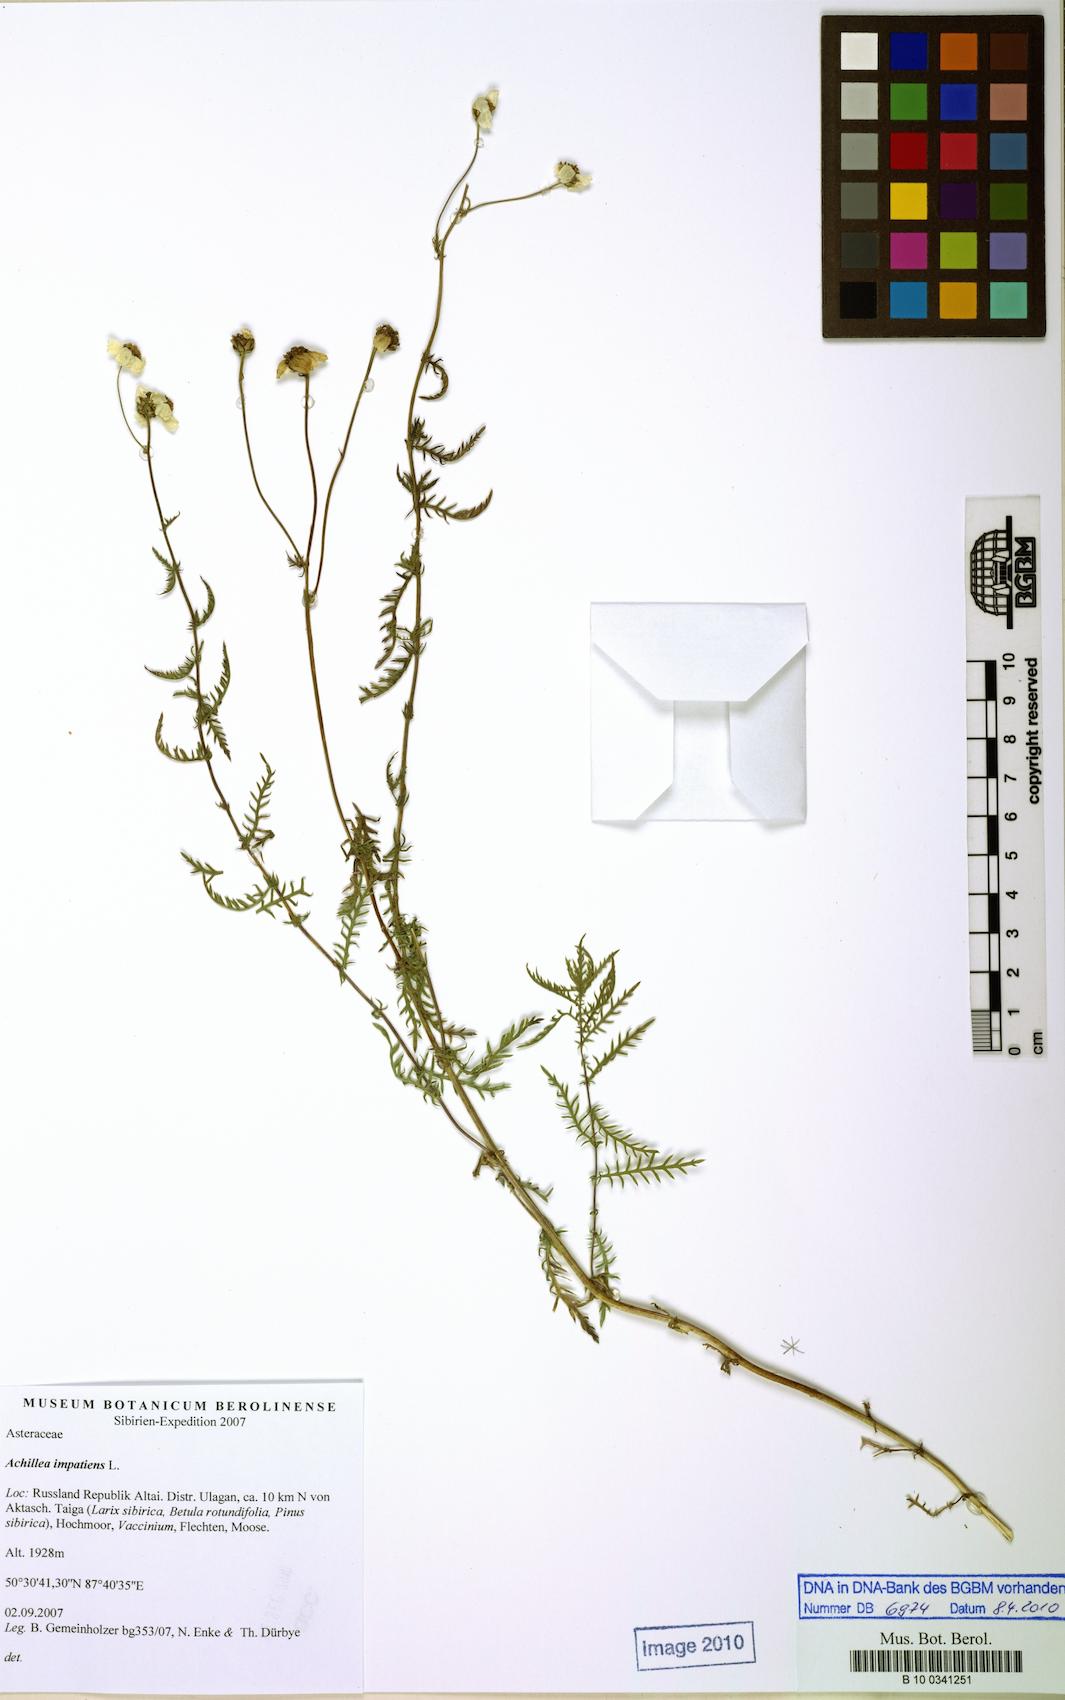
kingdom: Plantae
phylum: Tracheophyta
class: Magnoliopsida
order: Asterales
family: Asteraceae
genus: Achillea
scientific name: Achillea impatiens
